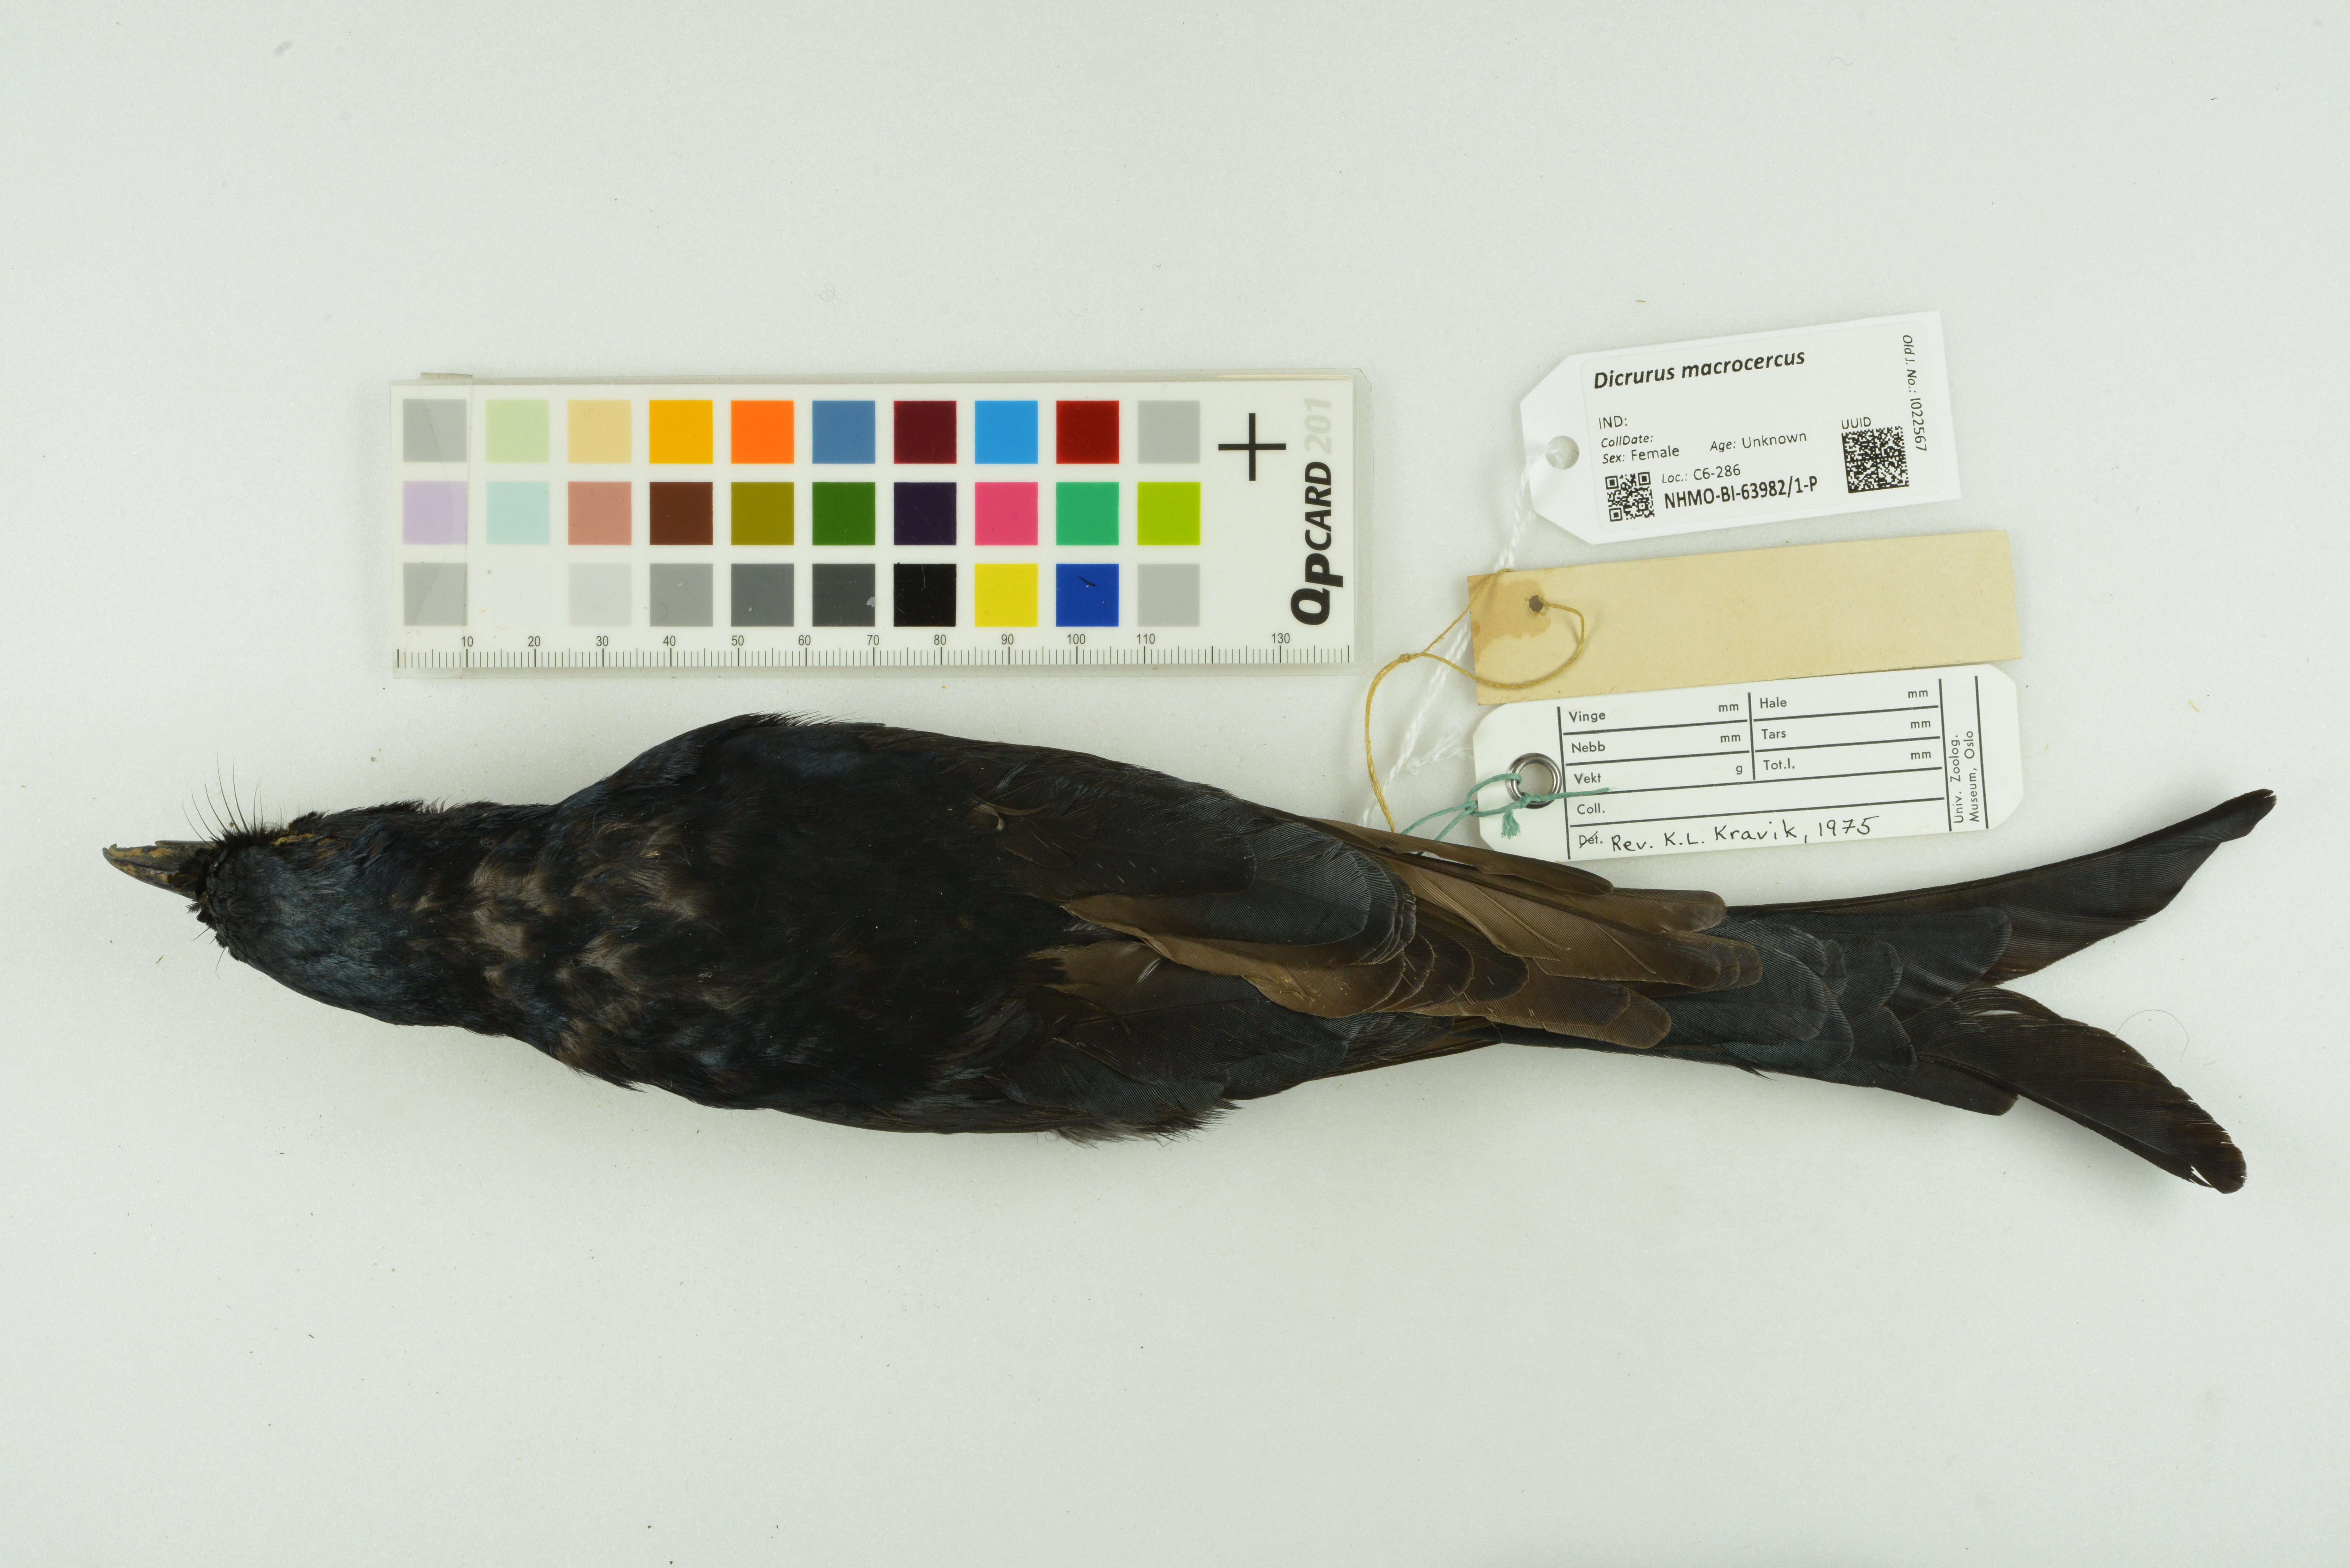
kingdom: Animalia
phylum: Chordata
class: Aves
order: Passeriformes
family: Dicruridae
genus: Dicrurus
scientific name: Dicrurus macrocercus
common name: Black drongo
